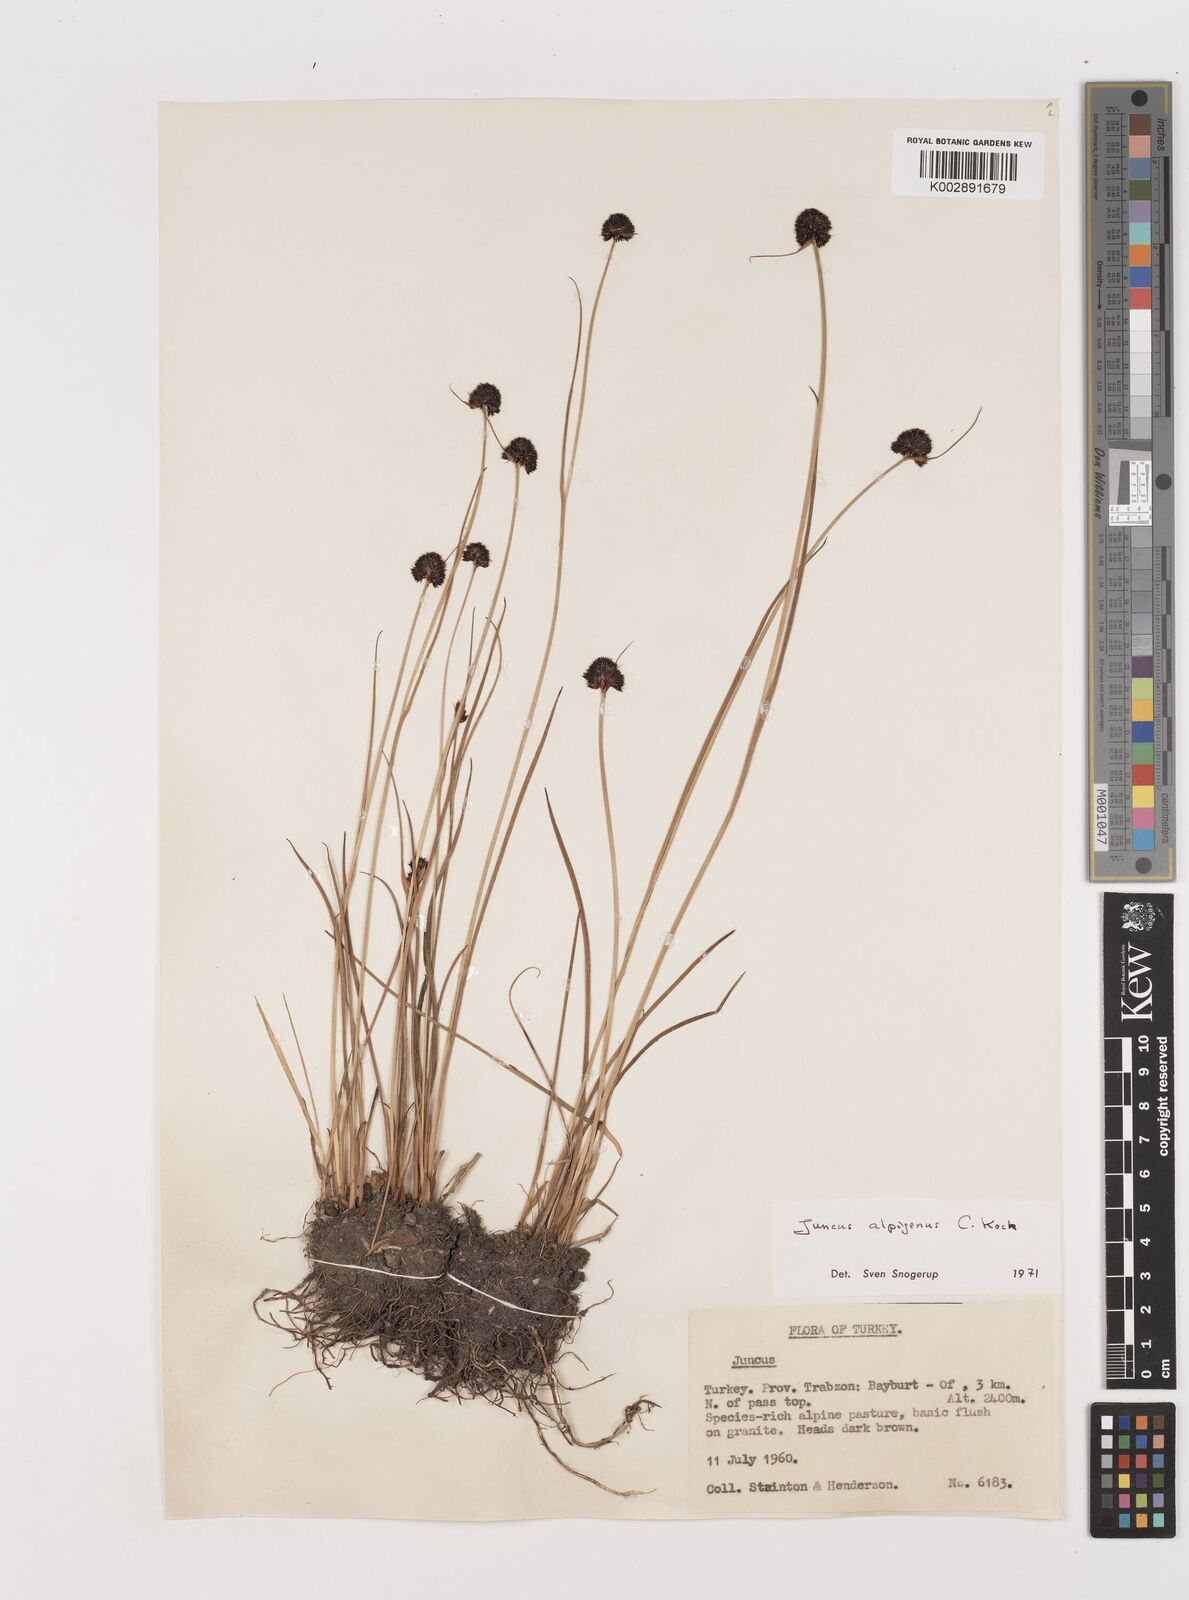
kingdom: Plantae
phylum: Tracheophyta
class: Liliopsida
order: Poales
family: Juncaceae
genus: Juncus
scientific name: Juncus alpigenus
